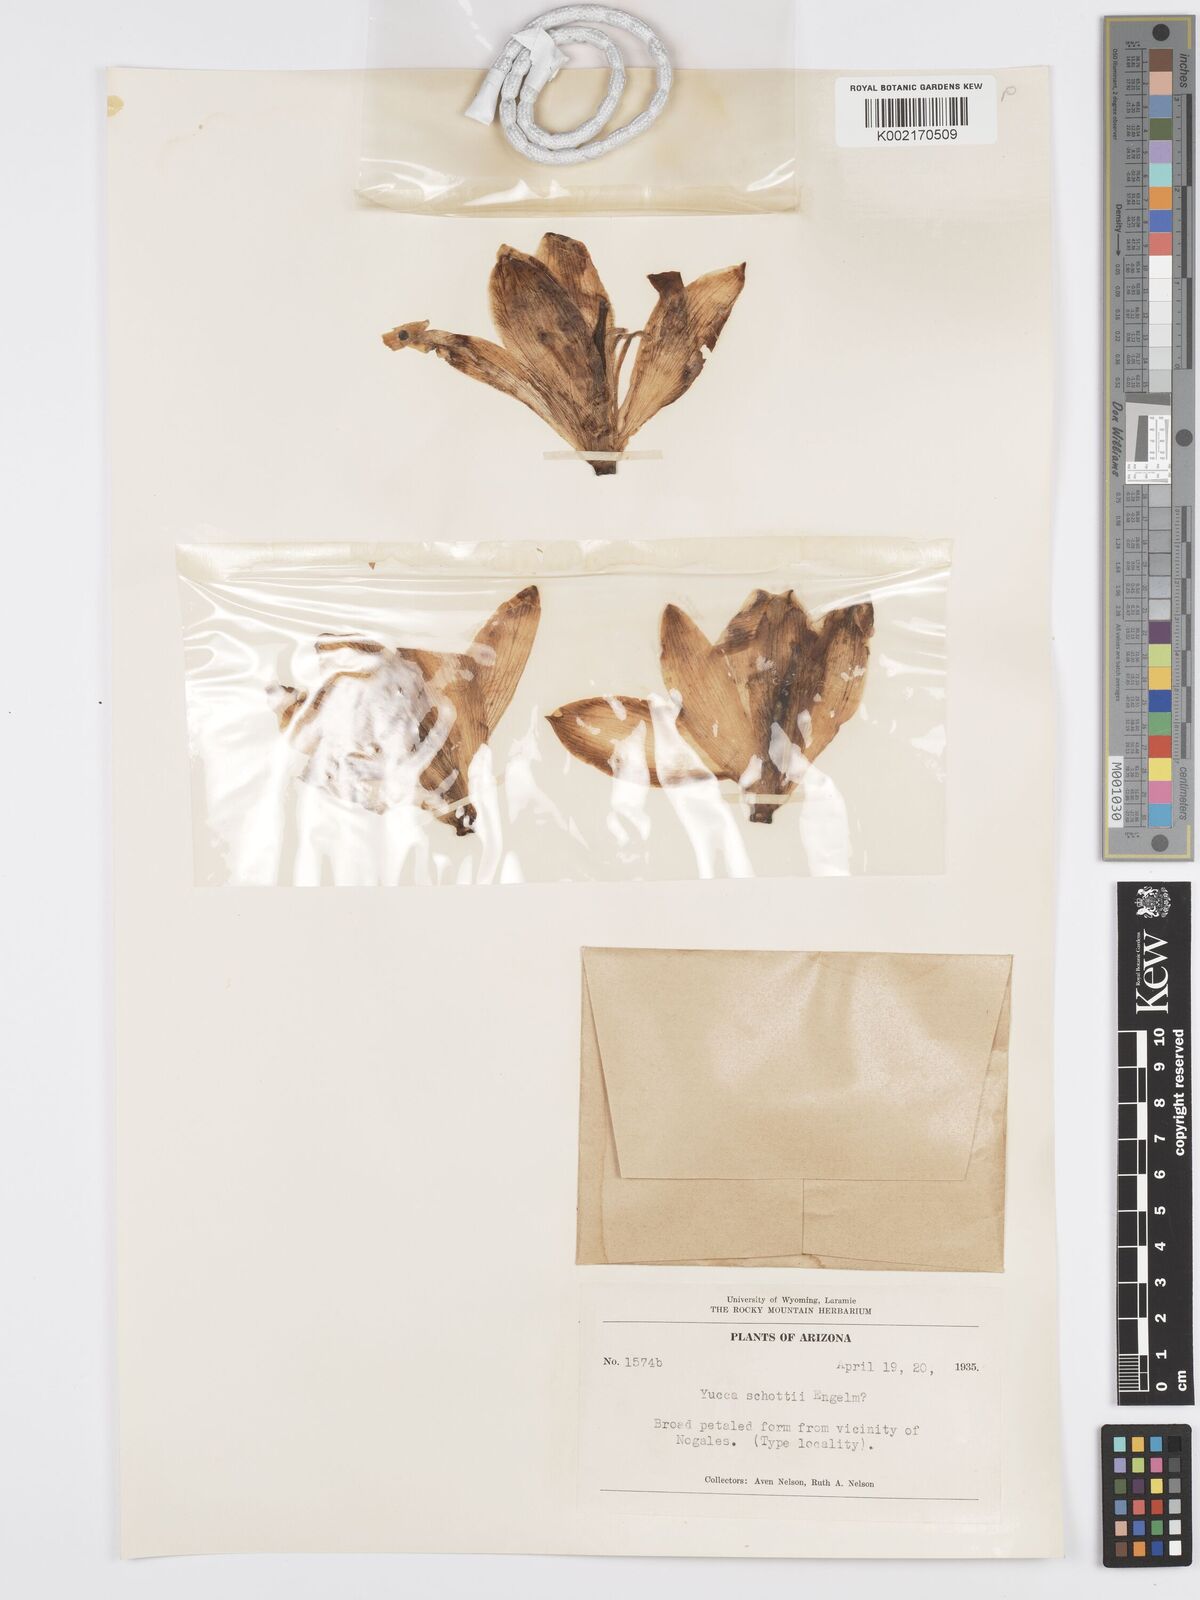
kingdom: Plantae
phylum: Tracheophyta
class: Liliopsida
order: Asparagales
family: Asparagaceae
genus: Yucca
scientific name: Yucca schottii
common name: Hoary yucca
